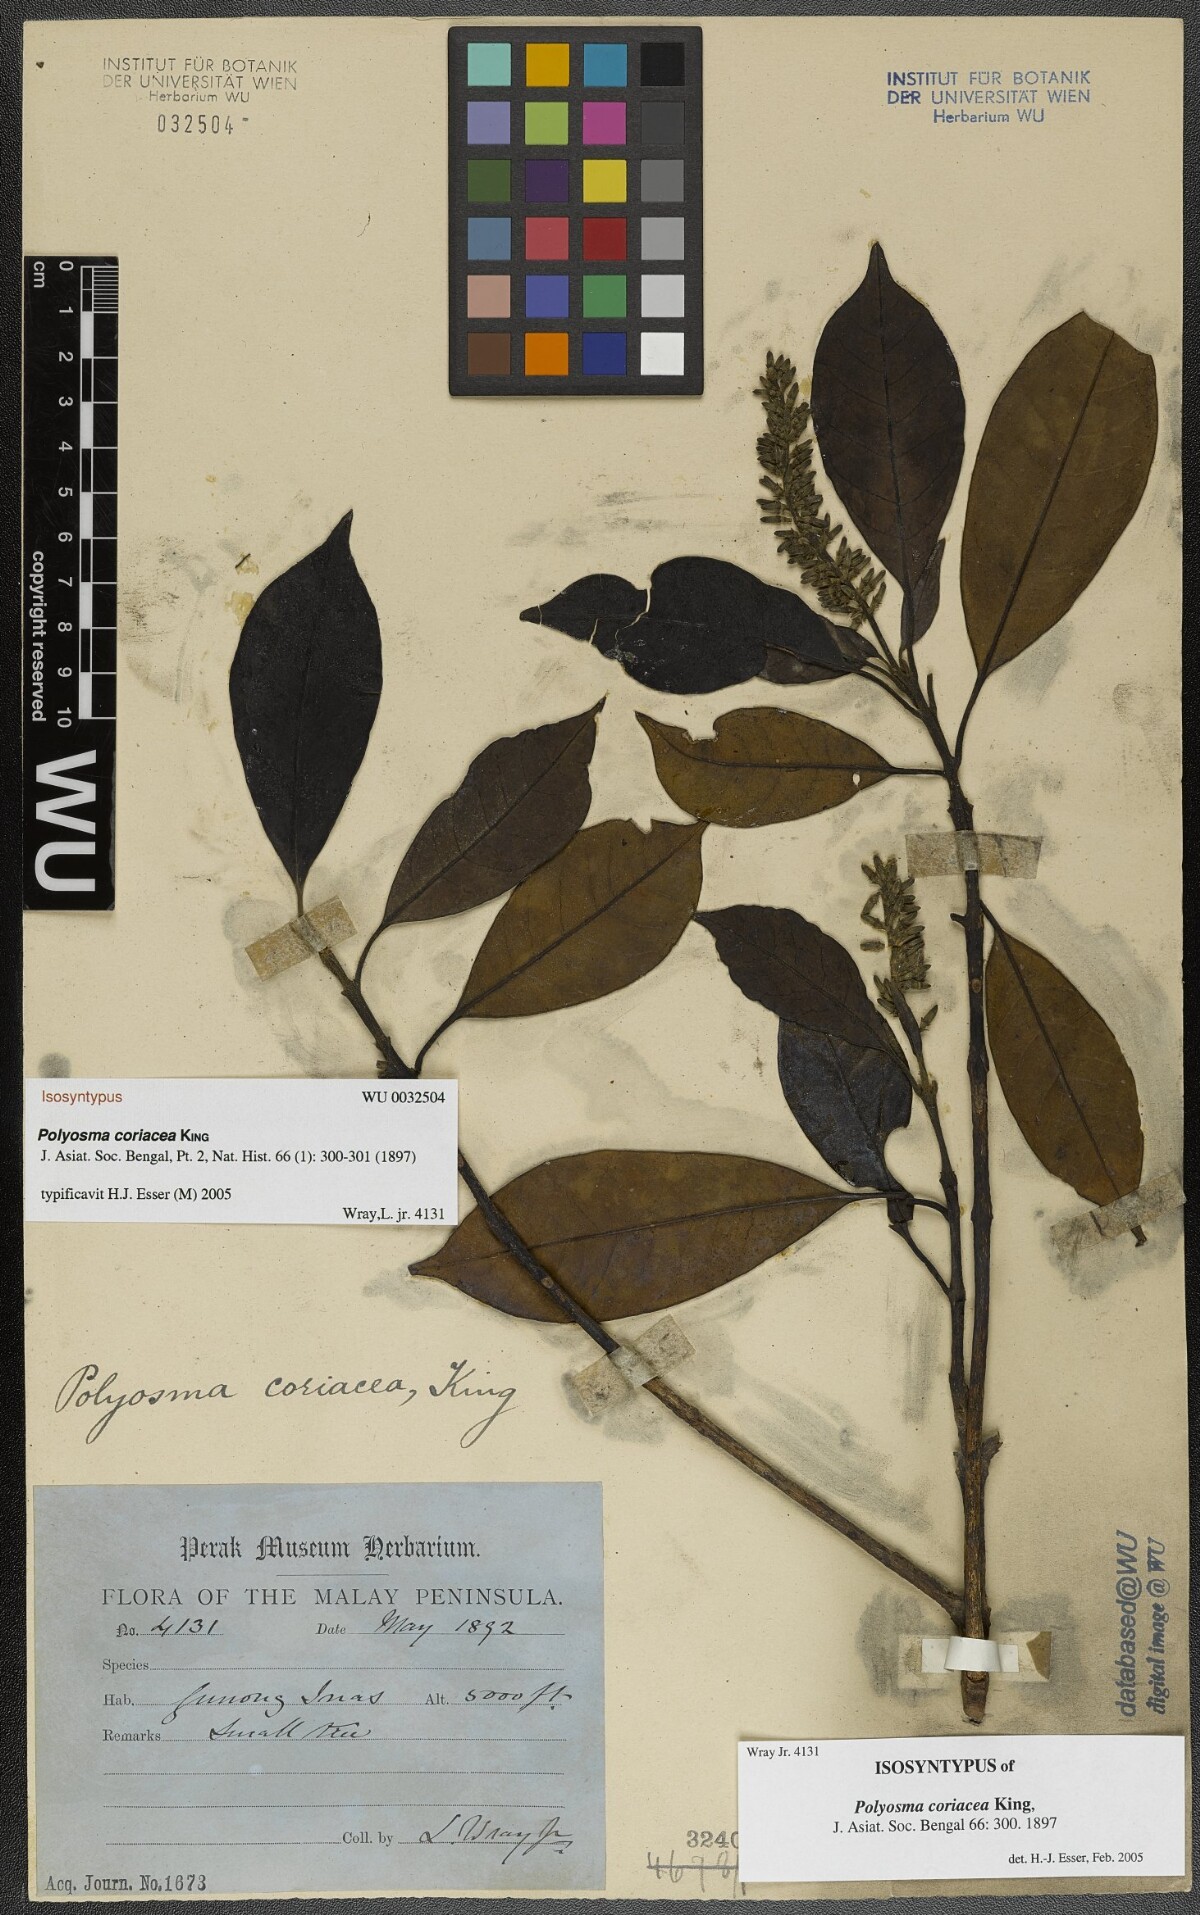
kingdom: Plantae
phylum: Tracheophyta
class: Magnoliopsida
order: Escalloniales
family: Escalloniaceae
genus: Polyosma
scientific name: Polyosma coriacea
